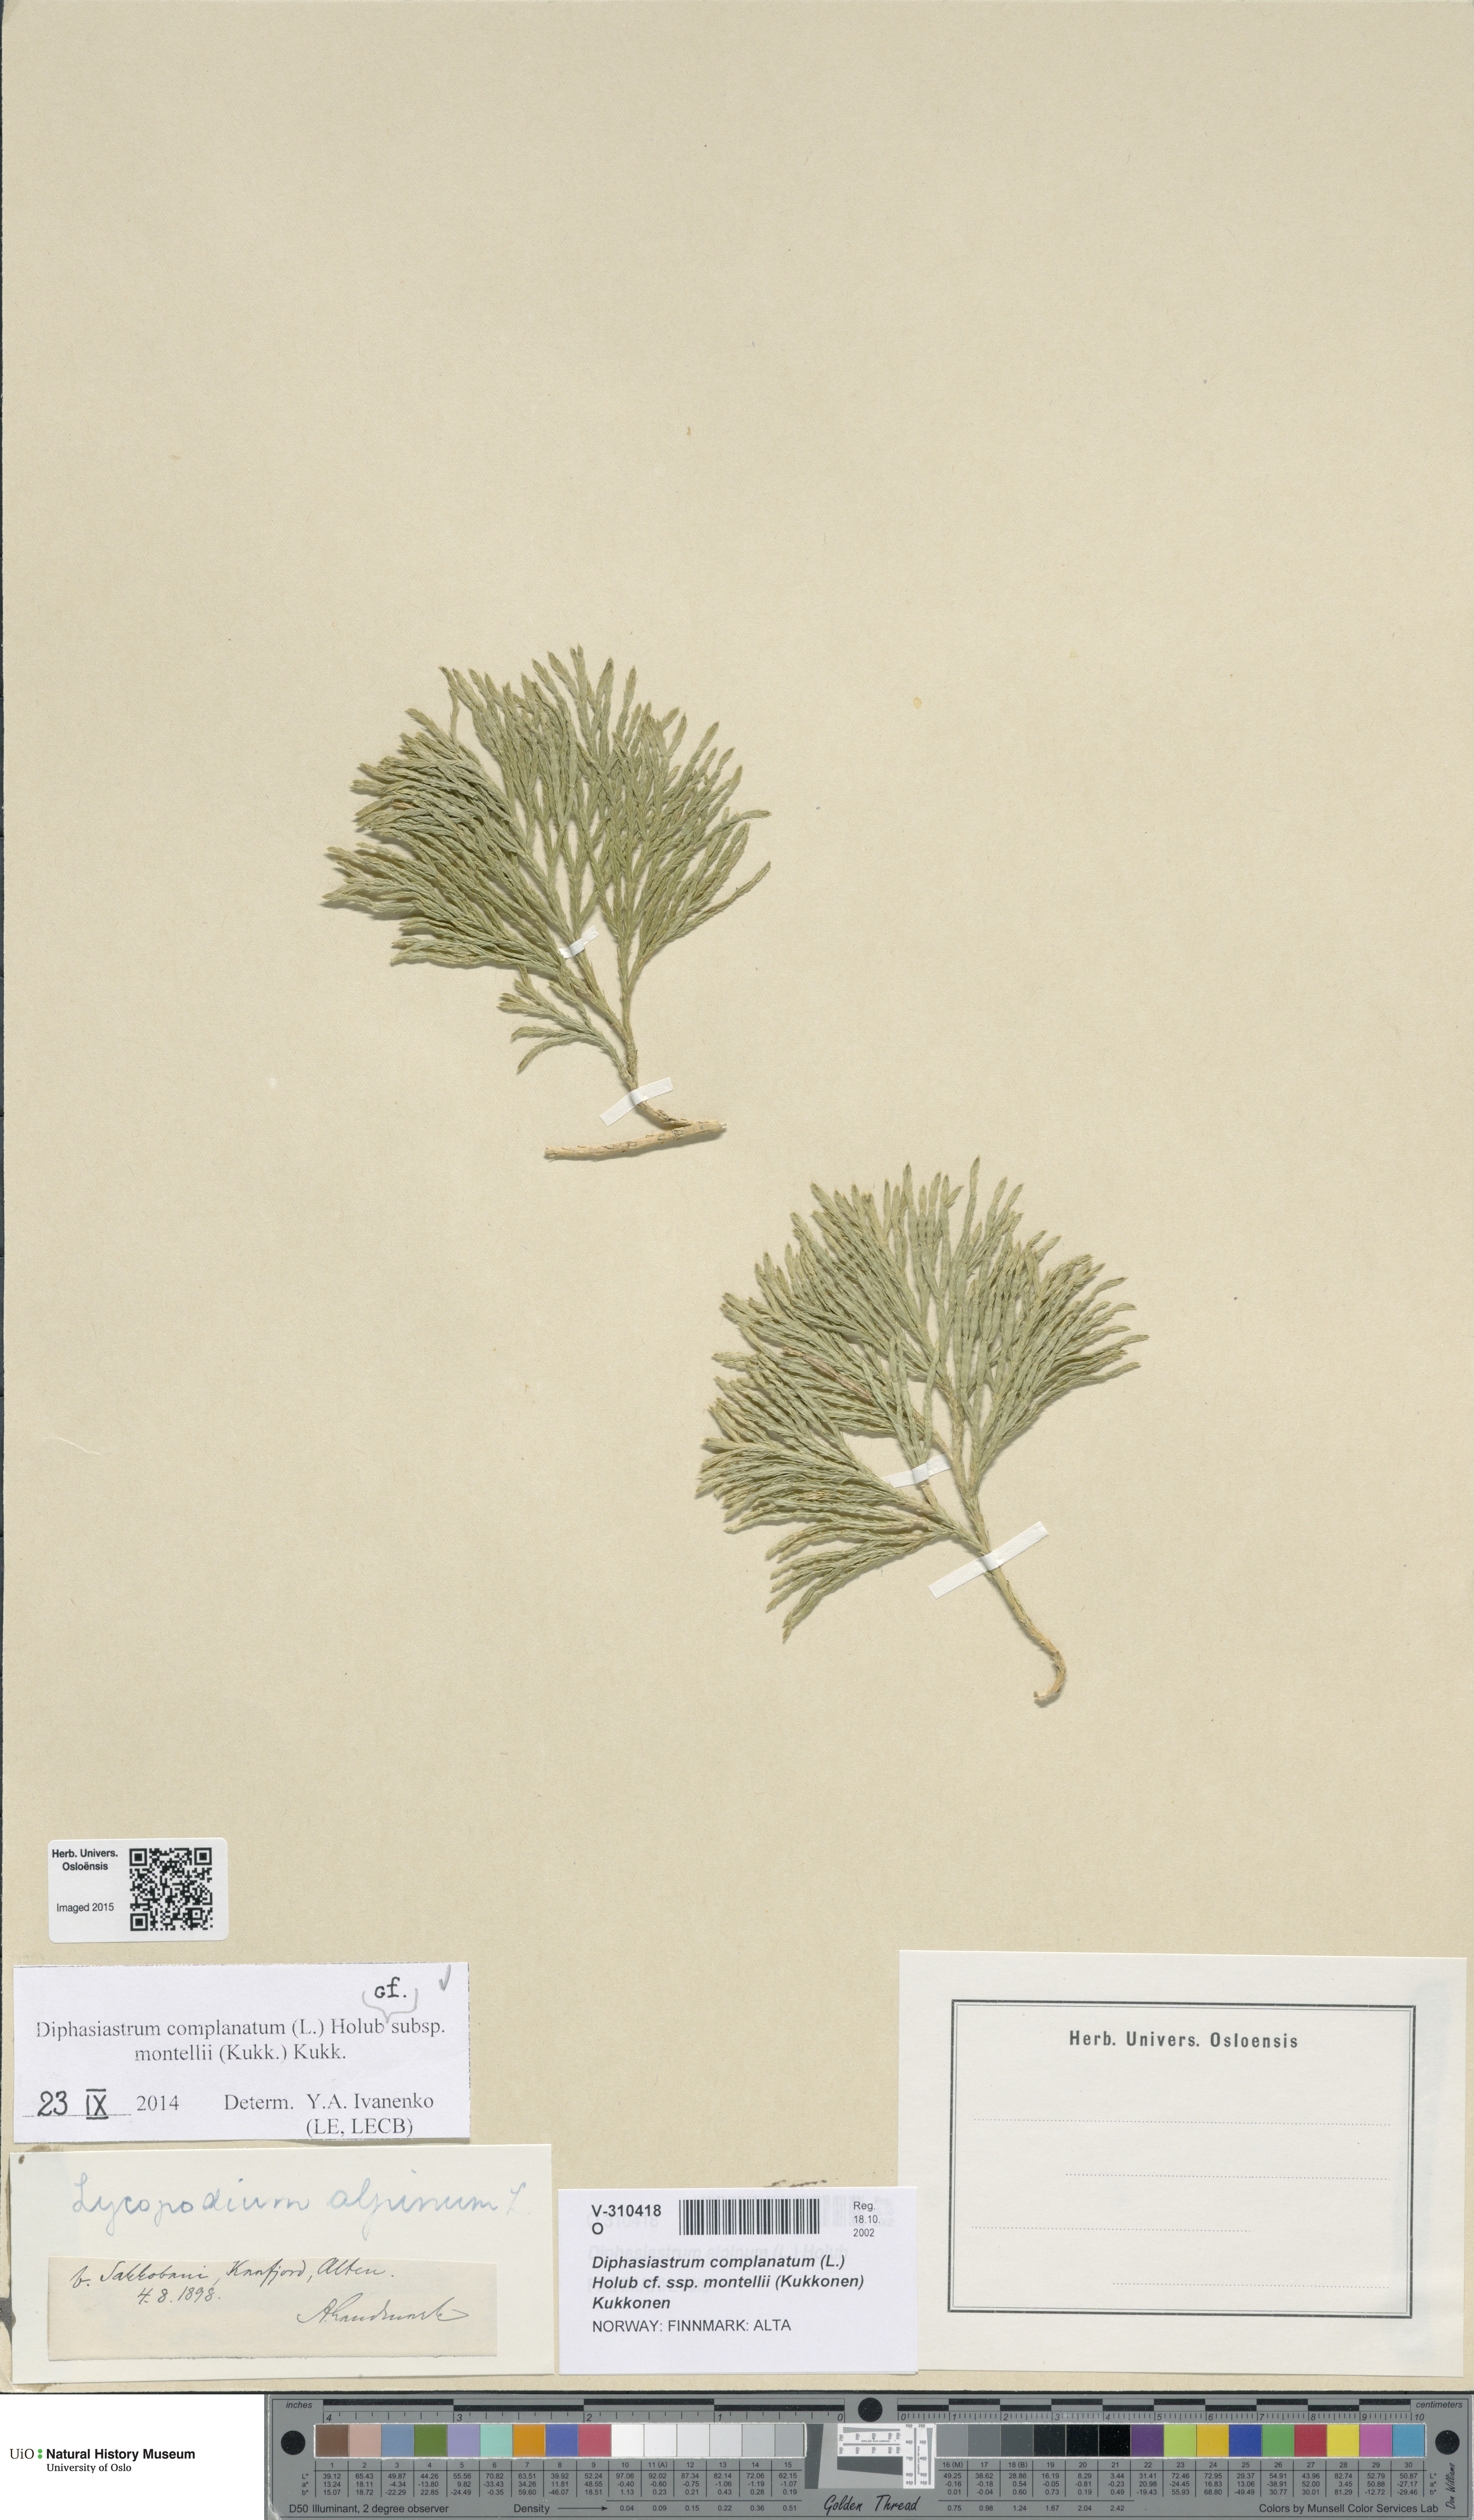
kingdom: Plantae
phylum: Tracheophyta
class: Lycopodiopsida
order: Lycopodiales
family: Lycopodiaceae
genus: Diphasiastrum
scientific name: Diphasiastrum complanatum
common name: Northern running-pine
